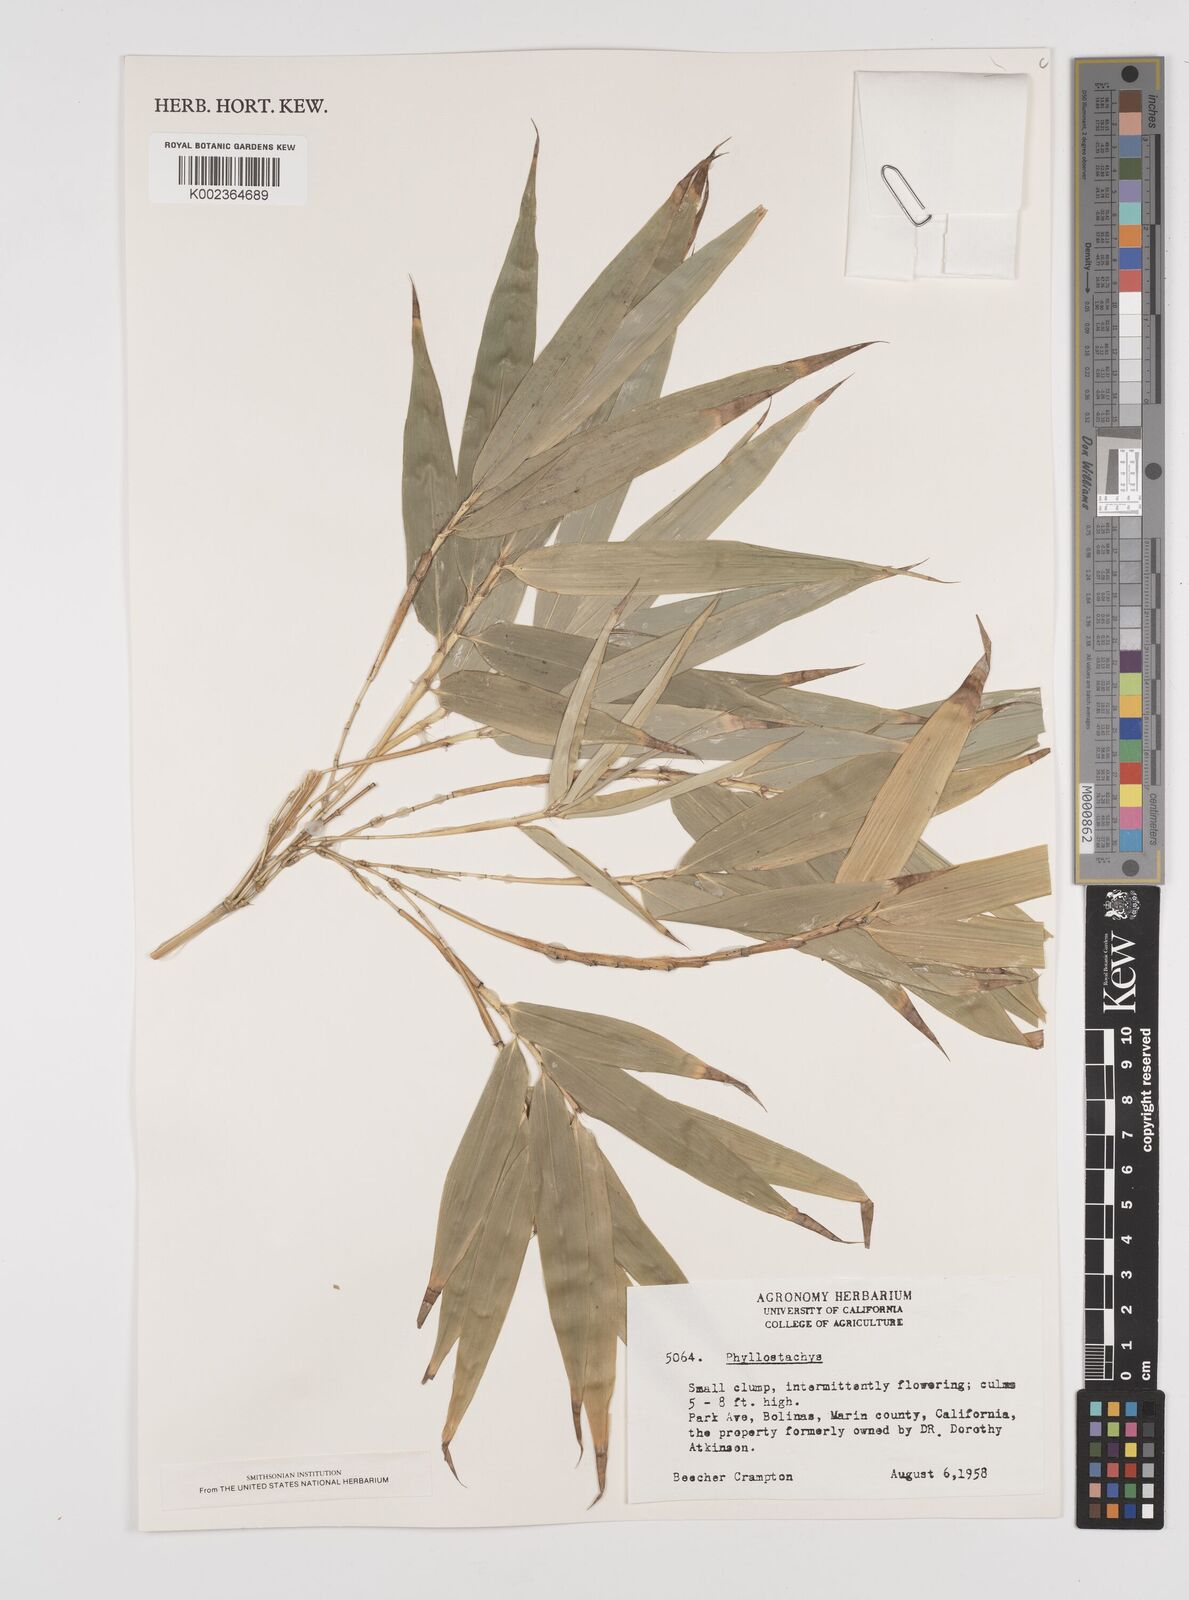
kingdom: Plantae
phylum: Tracheophyta
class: Liliopsida
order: Poales
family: Poaceae
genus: Phyllostachys
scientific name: Phyllostachys
